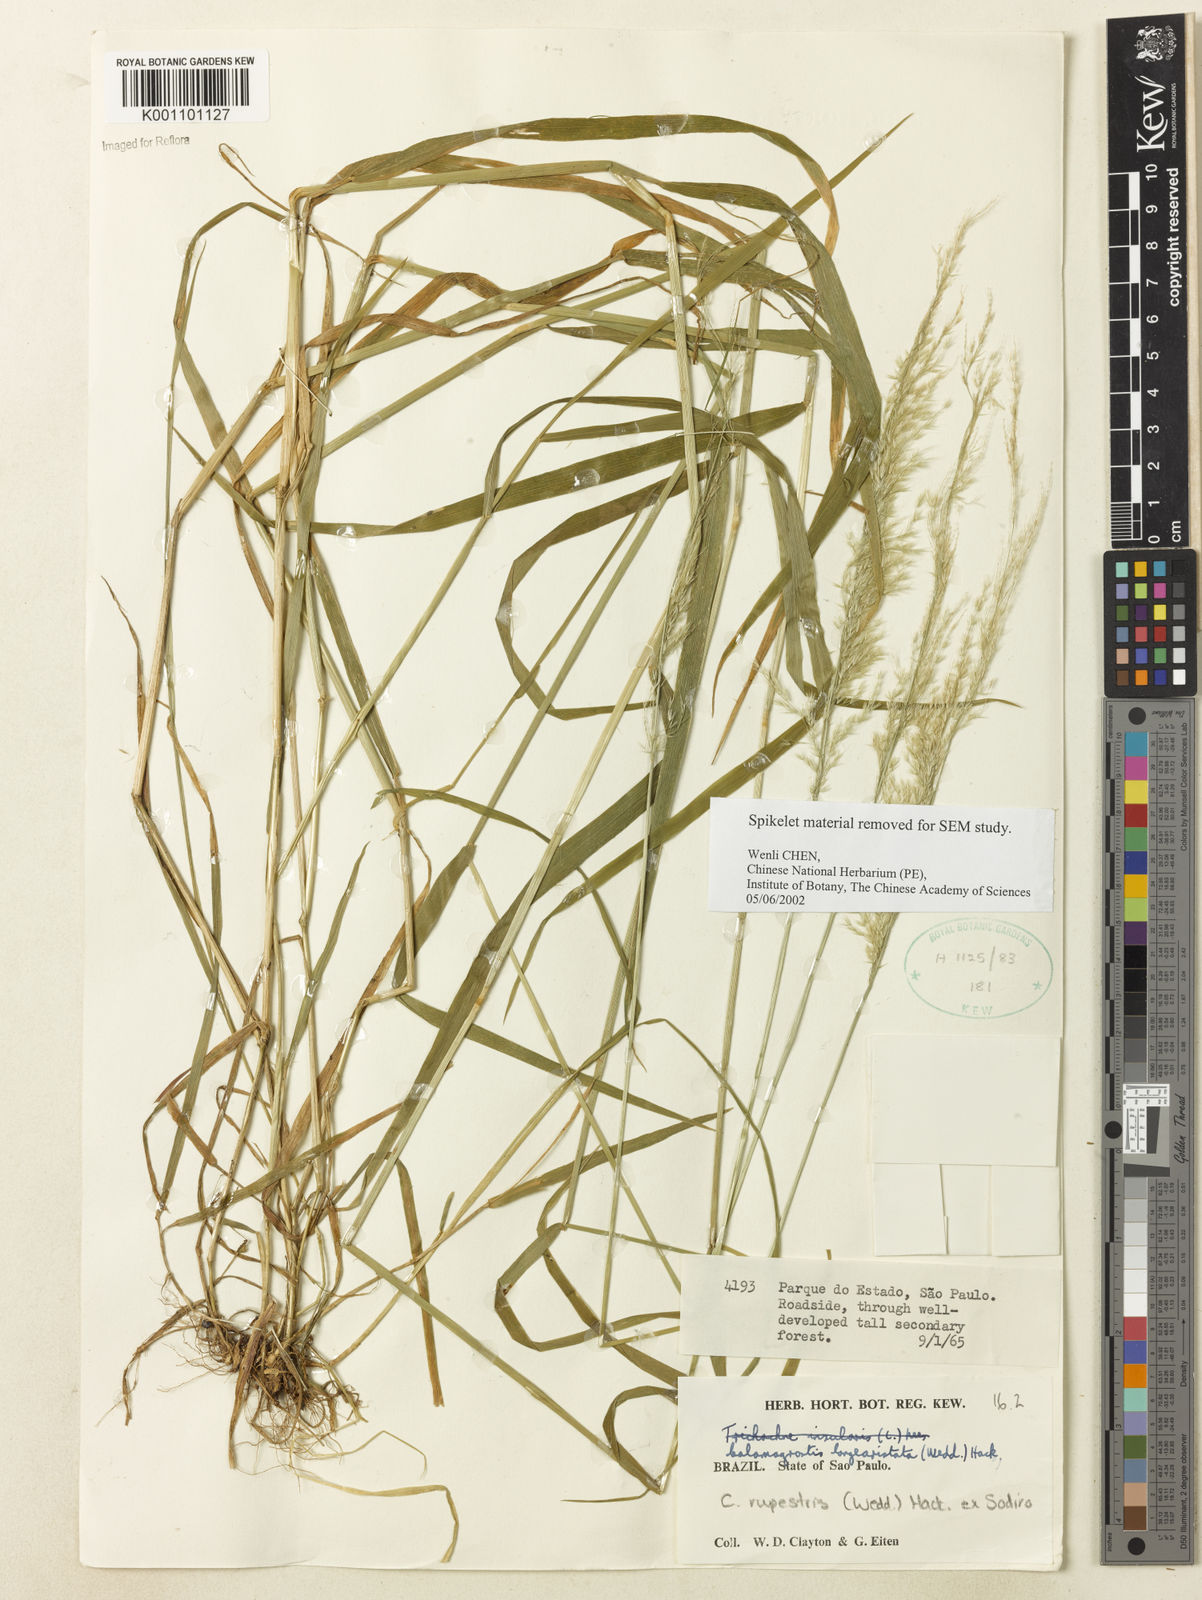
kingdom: Plantae
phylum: Tracheophyta
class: Liliopsida
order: Poales
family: Poaceae
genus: Cinnagrostis
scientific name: Cinnagrostis rupestris
